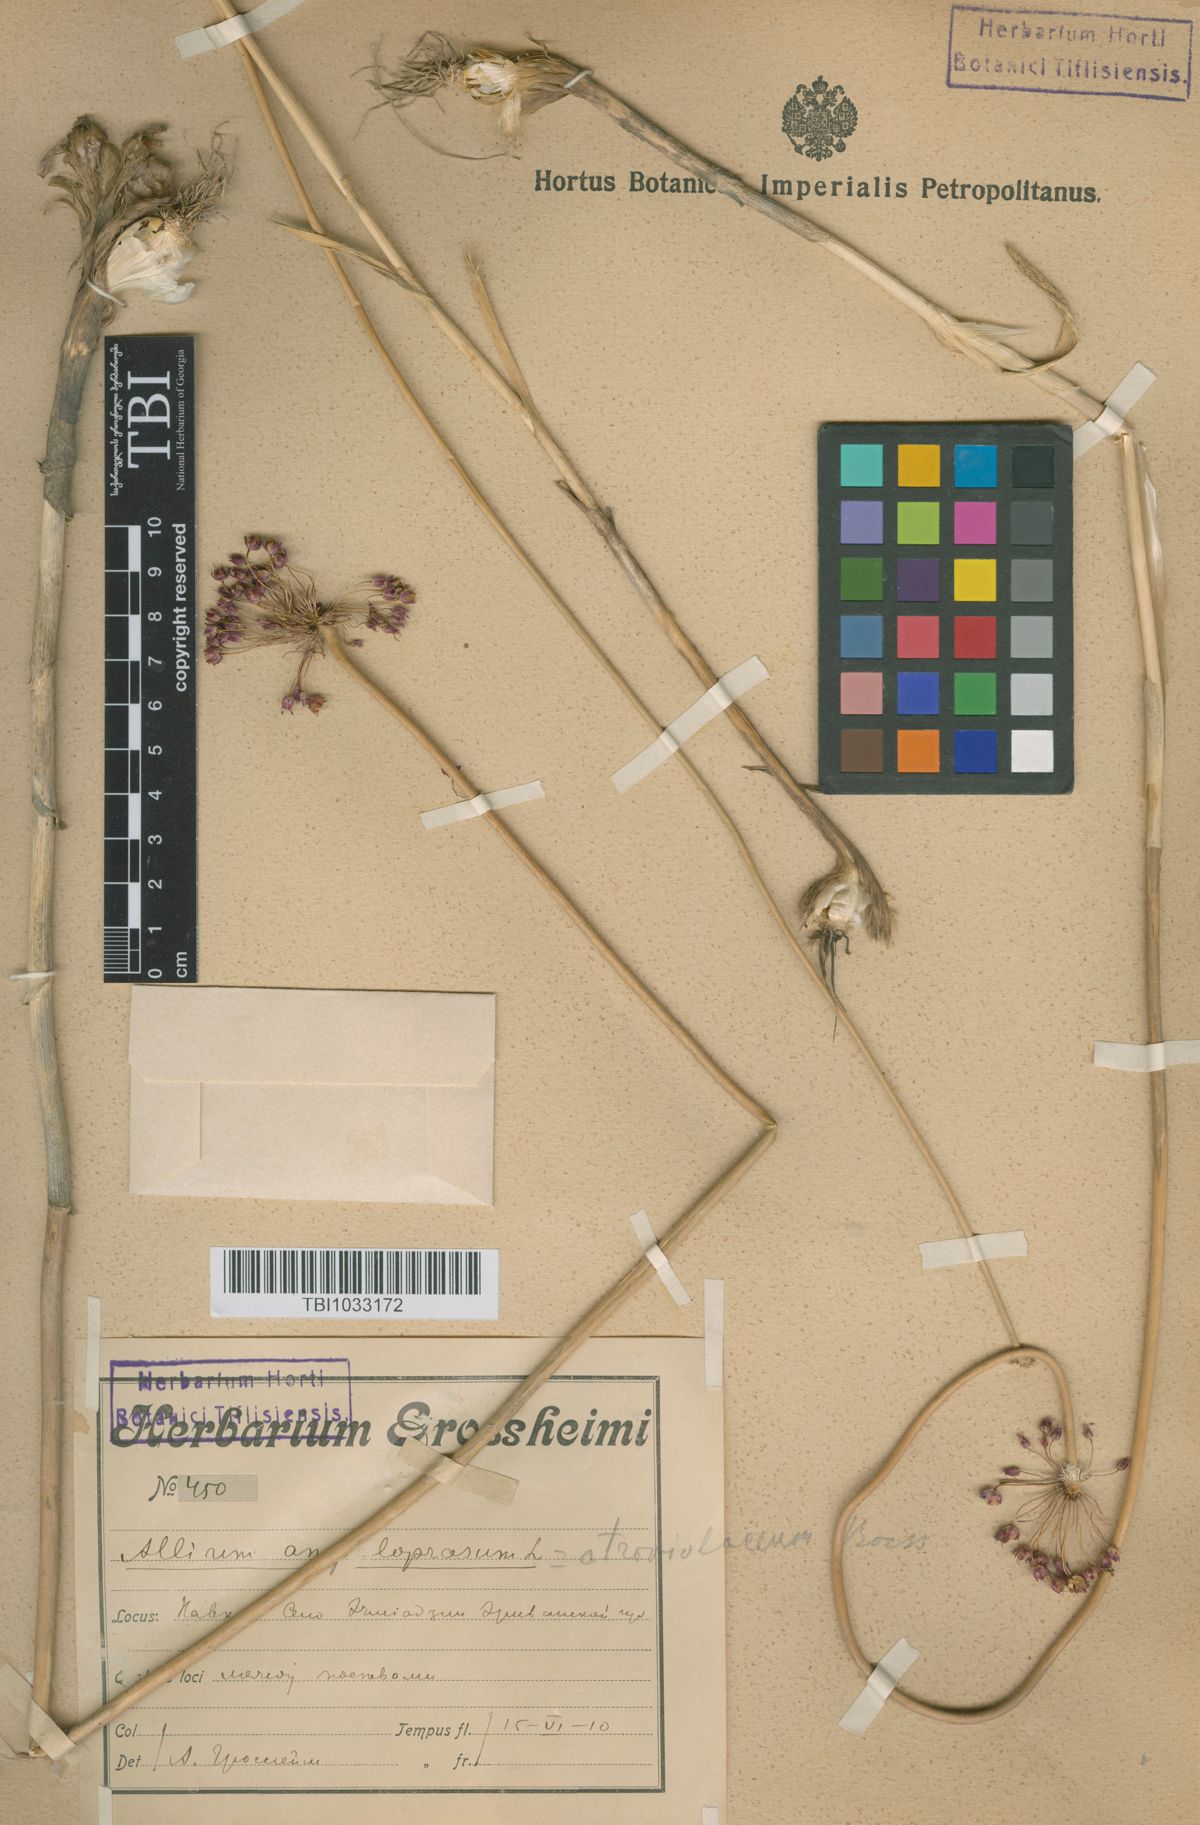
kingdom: Plantae
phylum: Tracheophyta
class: Liliopsida
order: Asparagales
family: Amaryllidaceae
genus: Allium
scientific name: Allium atroviolaceum
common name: Broadleaf wild leek
